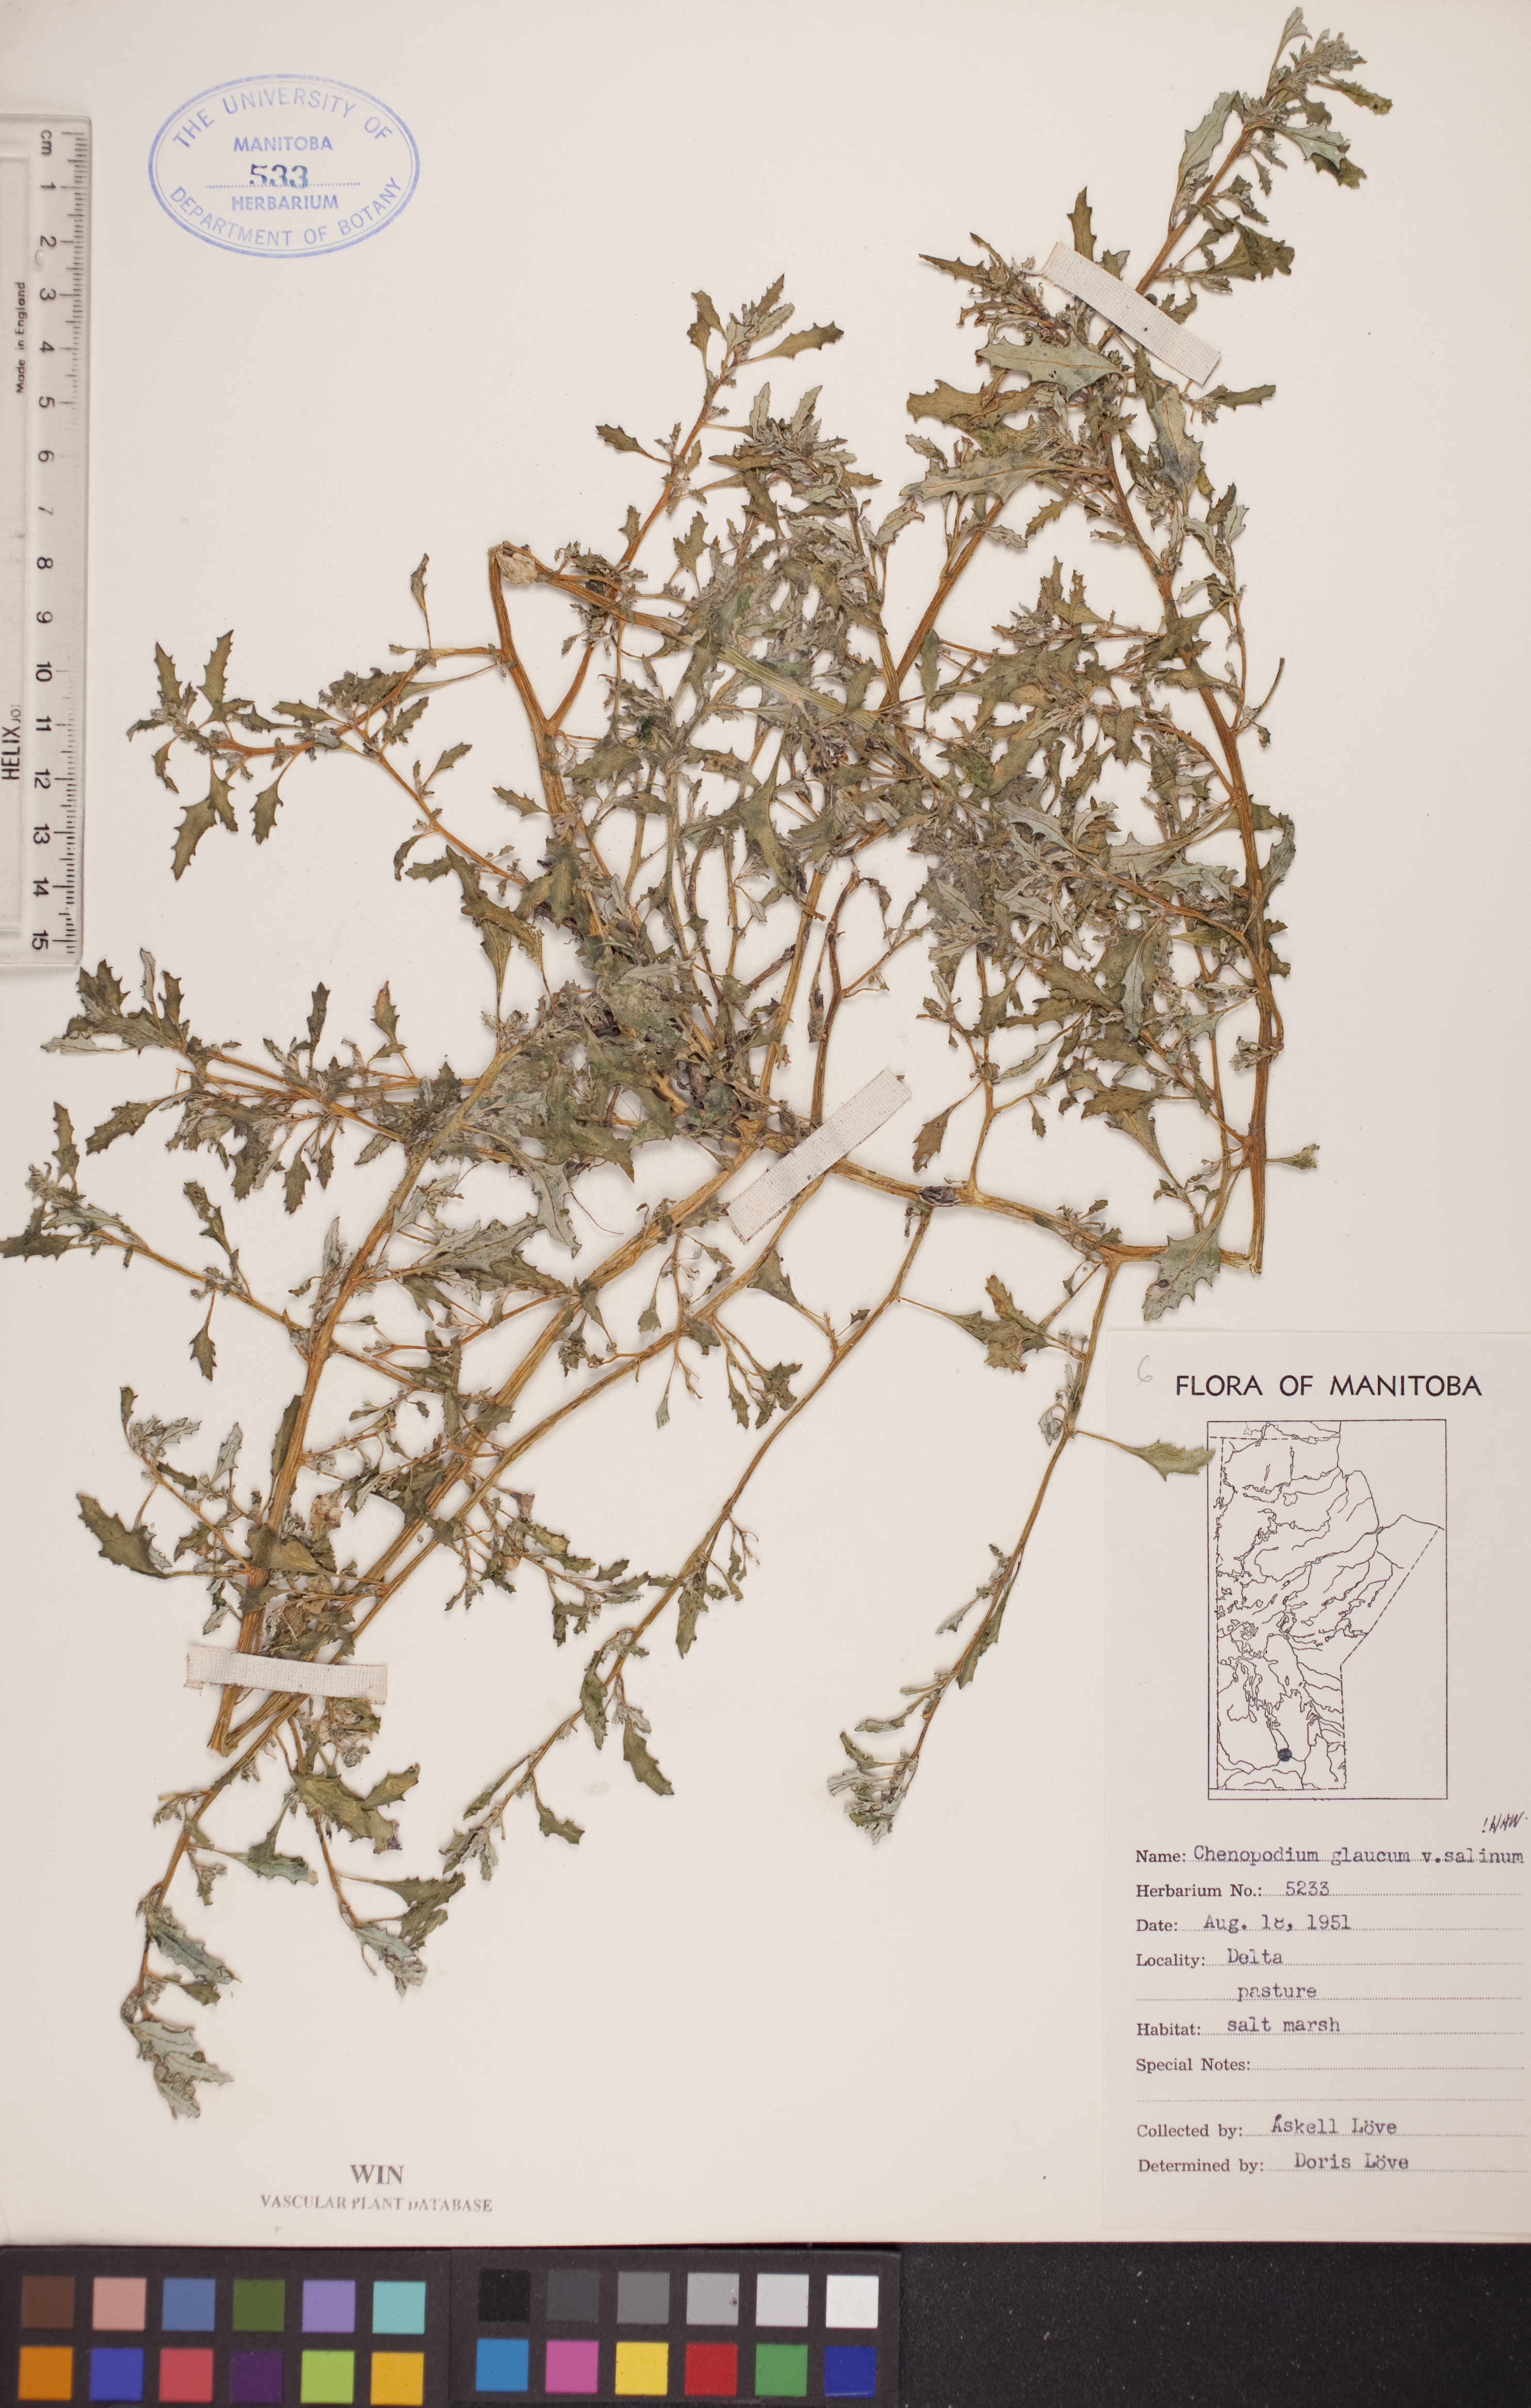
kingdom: Plantae
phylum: Tracheophyta
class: Magnoliopsida
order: Caryophyllales
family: Amaranthaceae
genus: Oxybasis
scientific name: Oxybasis salina
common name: Rocky mountain goosefoot
